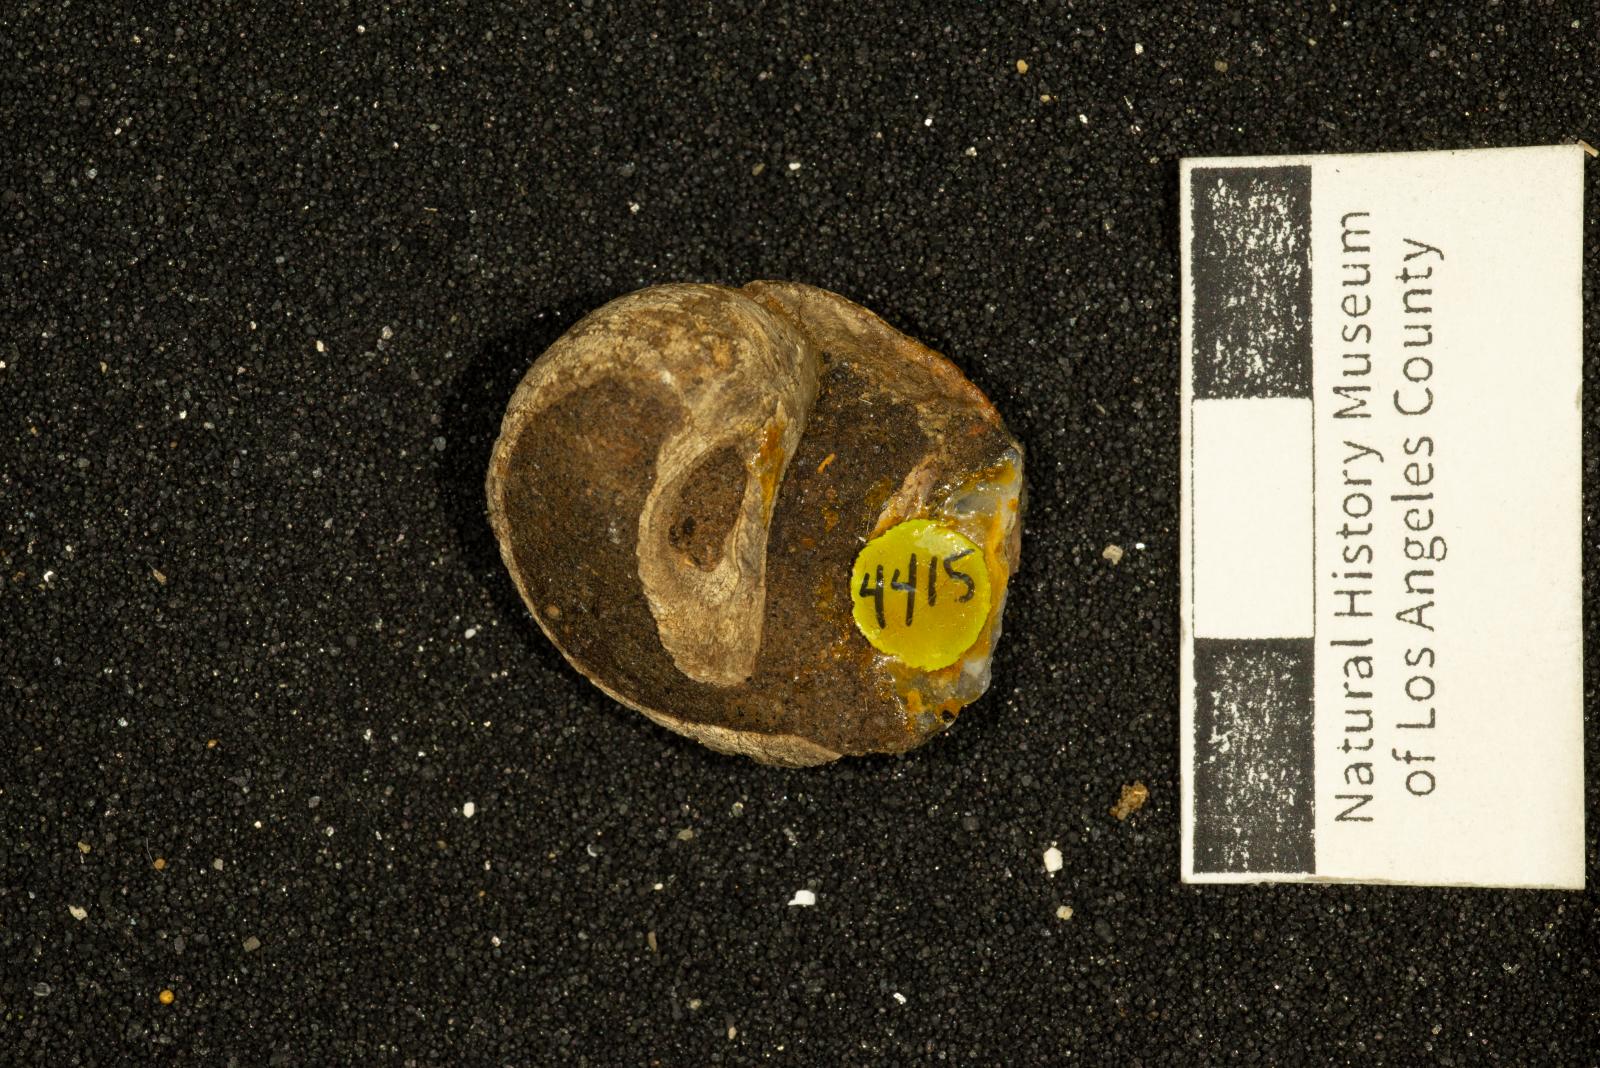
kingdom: Animalia
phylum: Mollusca
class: Gastropoda
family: Gyrodidae
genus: Gyrodes
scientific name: Gyrodes pacificus
